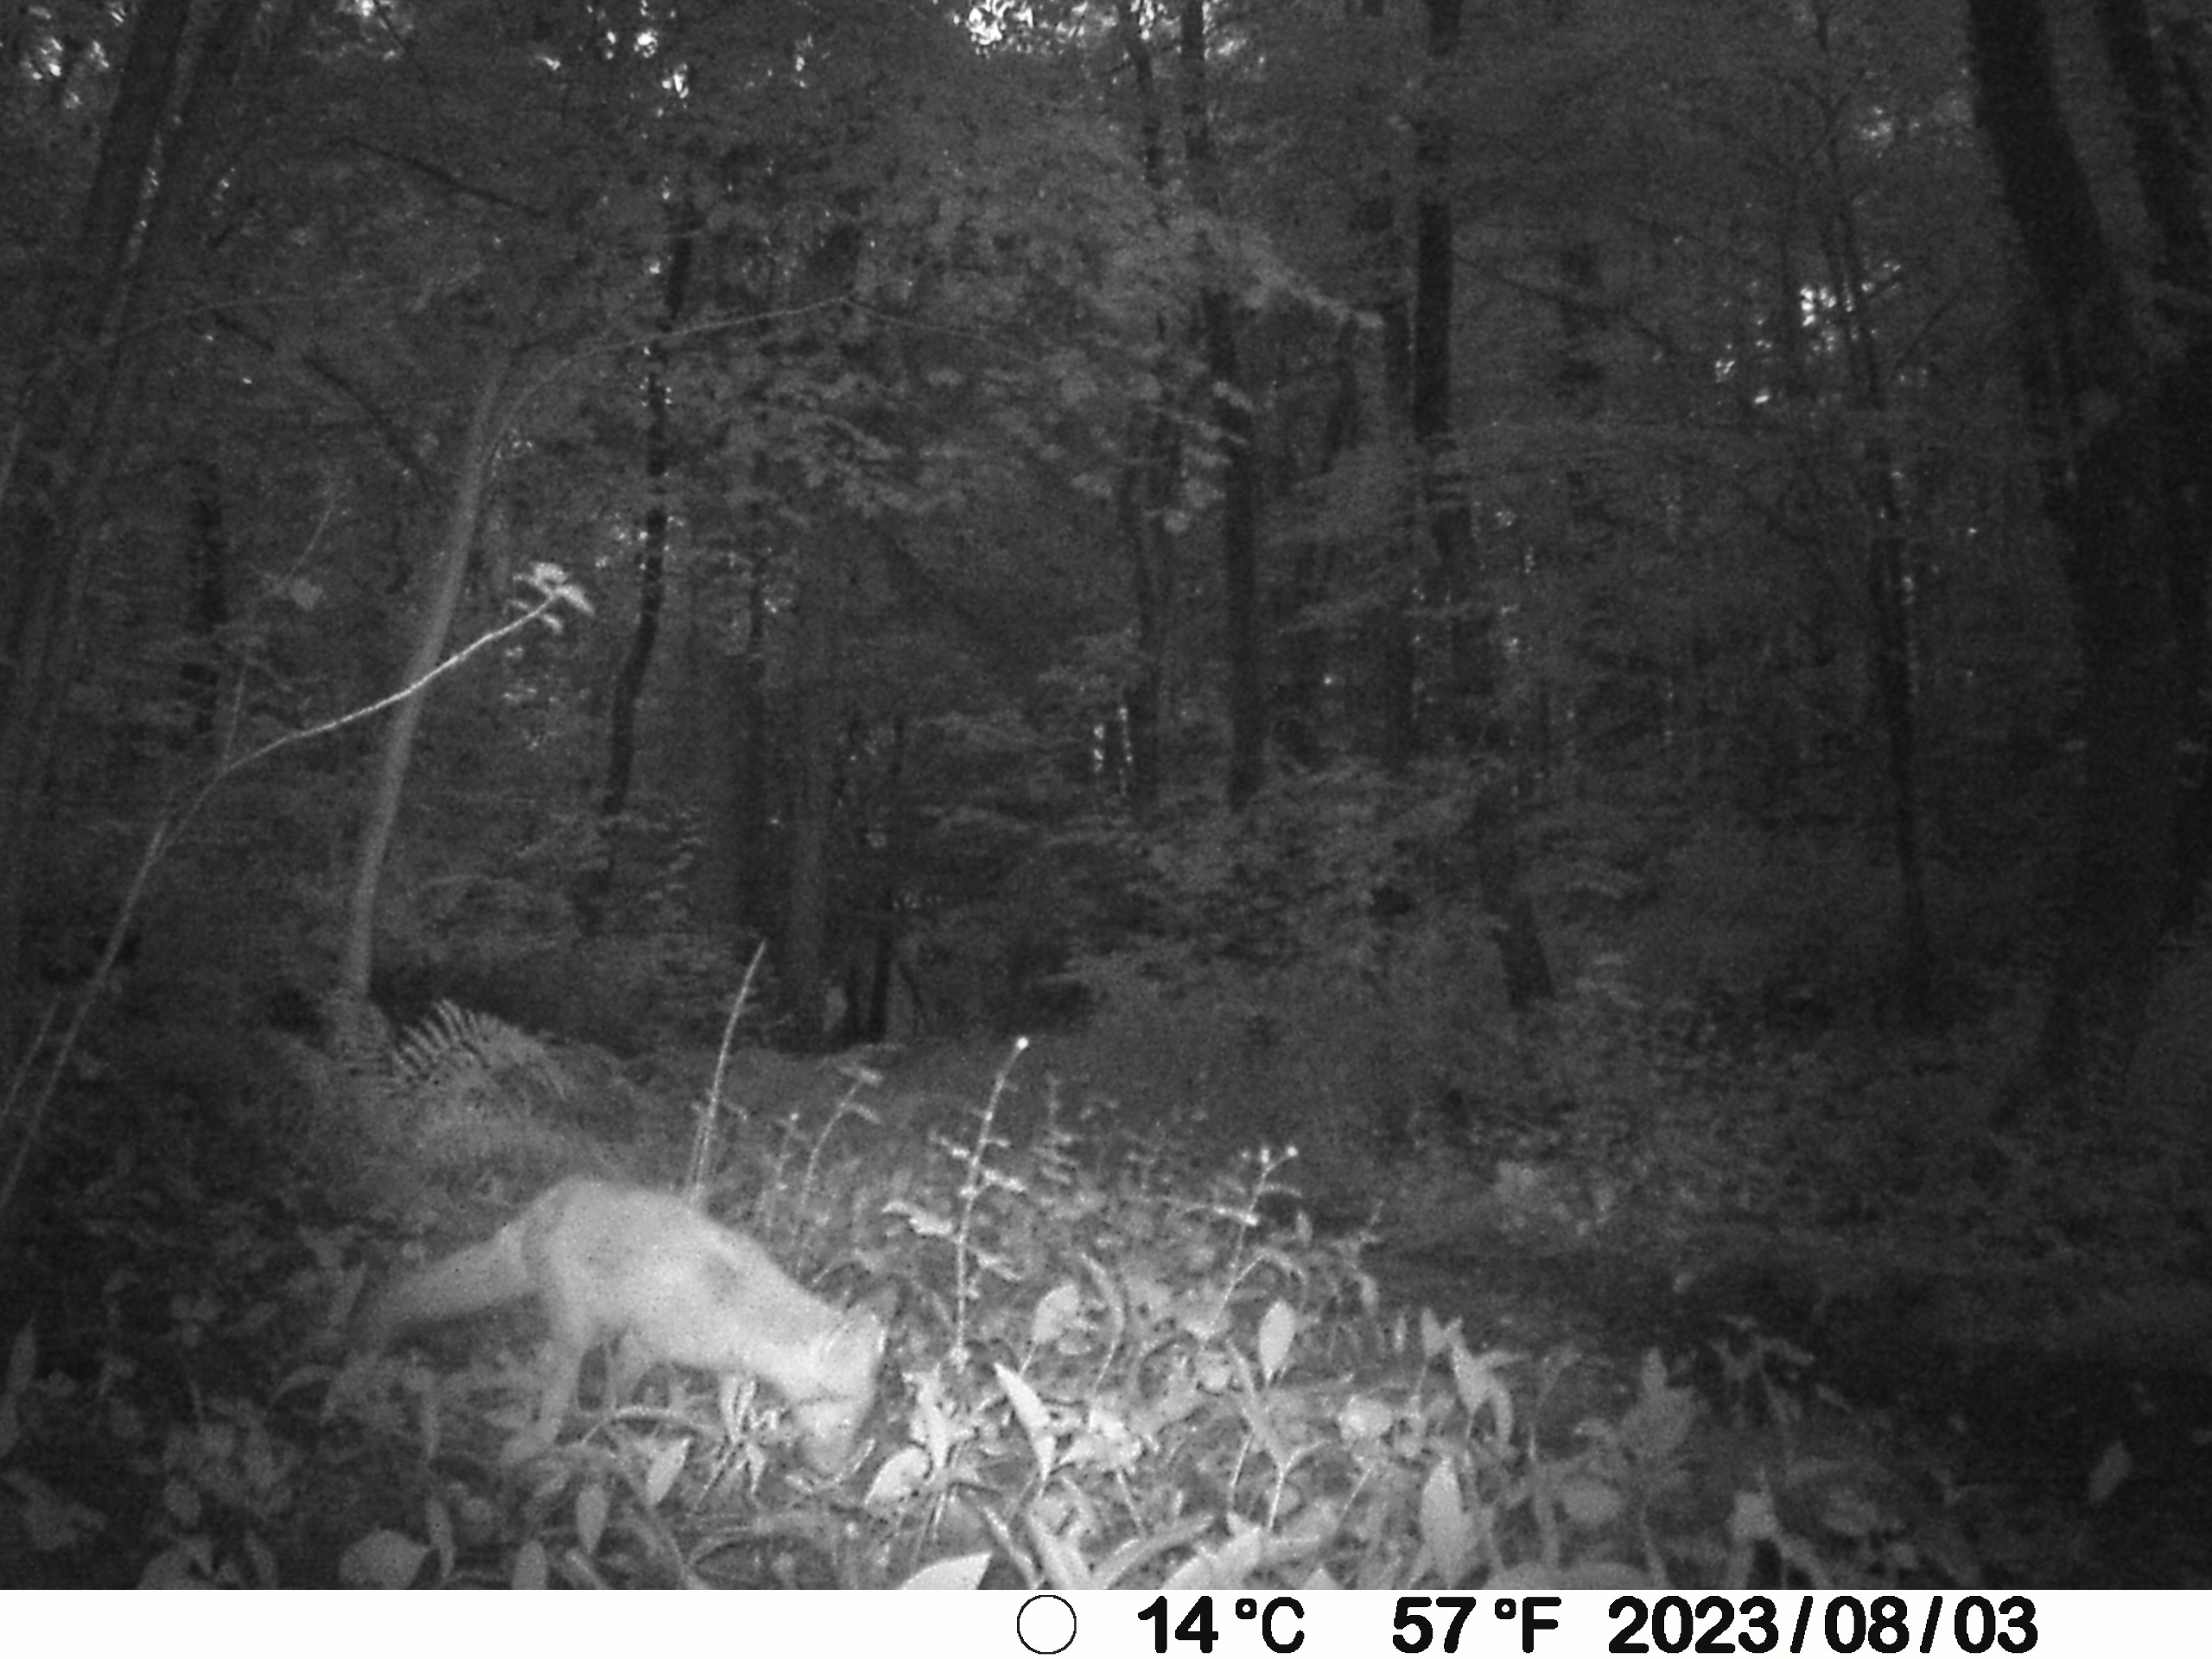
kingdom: Animalia
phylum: Chordata
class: Mammalia
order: Carnivora
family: Canidae
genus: Vulpes
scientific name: Vulpes vulpes
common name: Ræv
